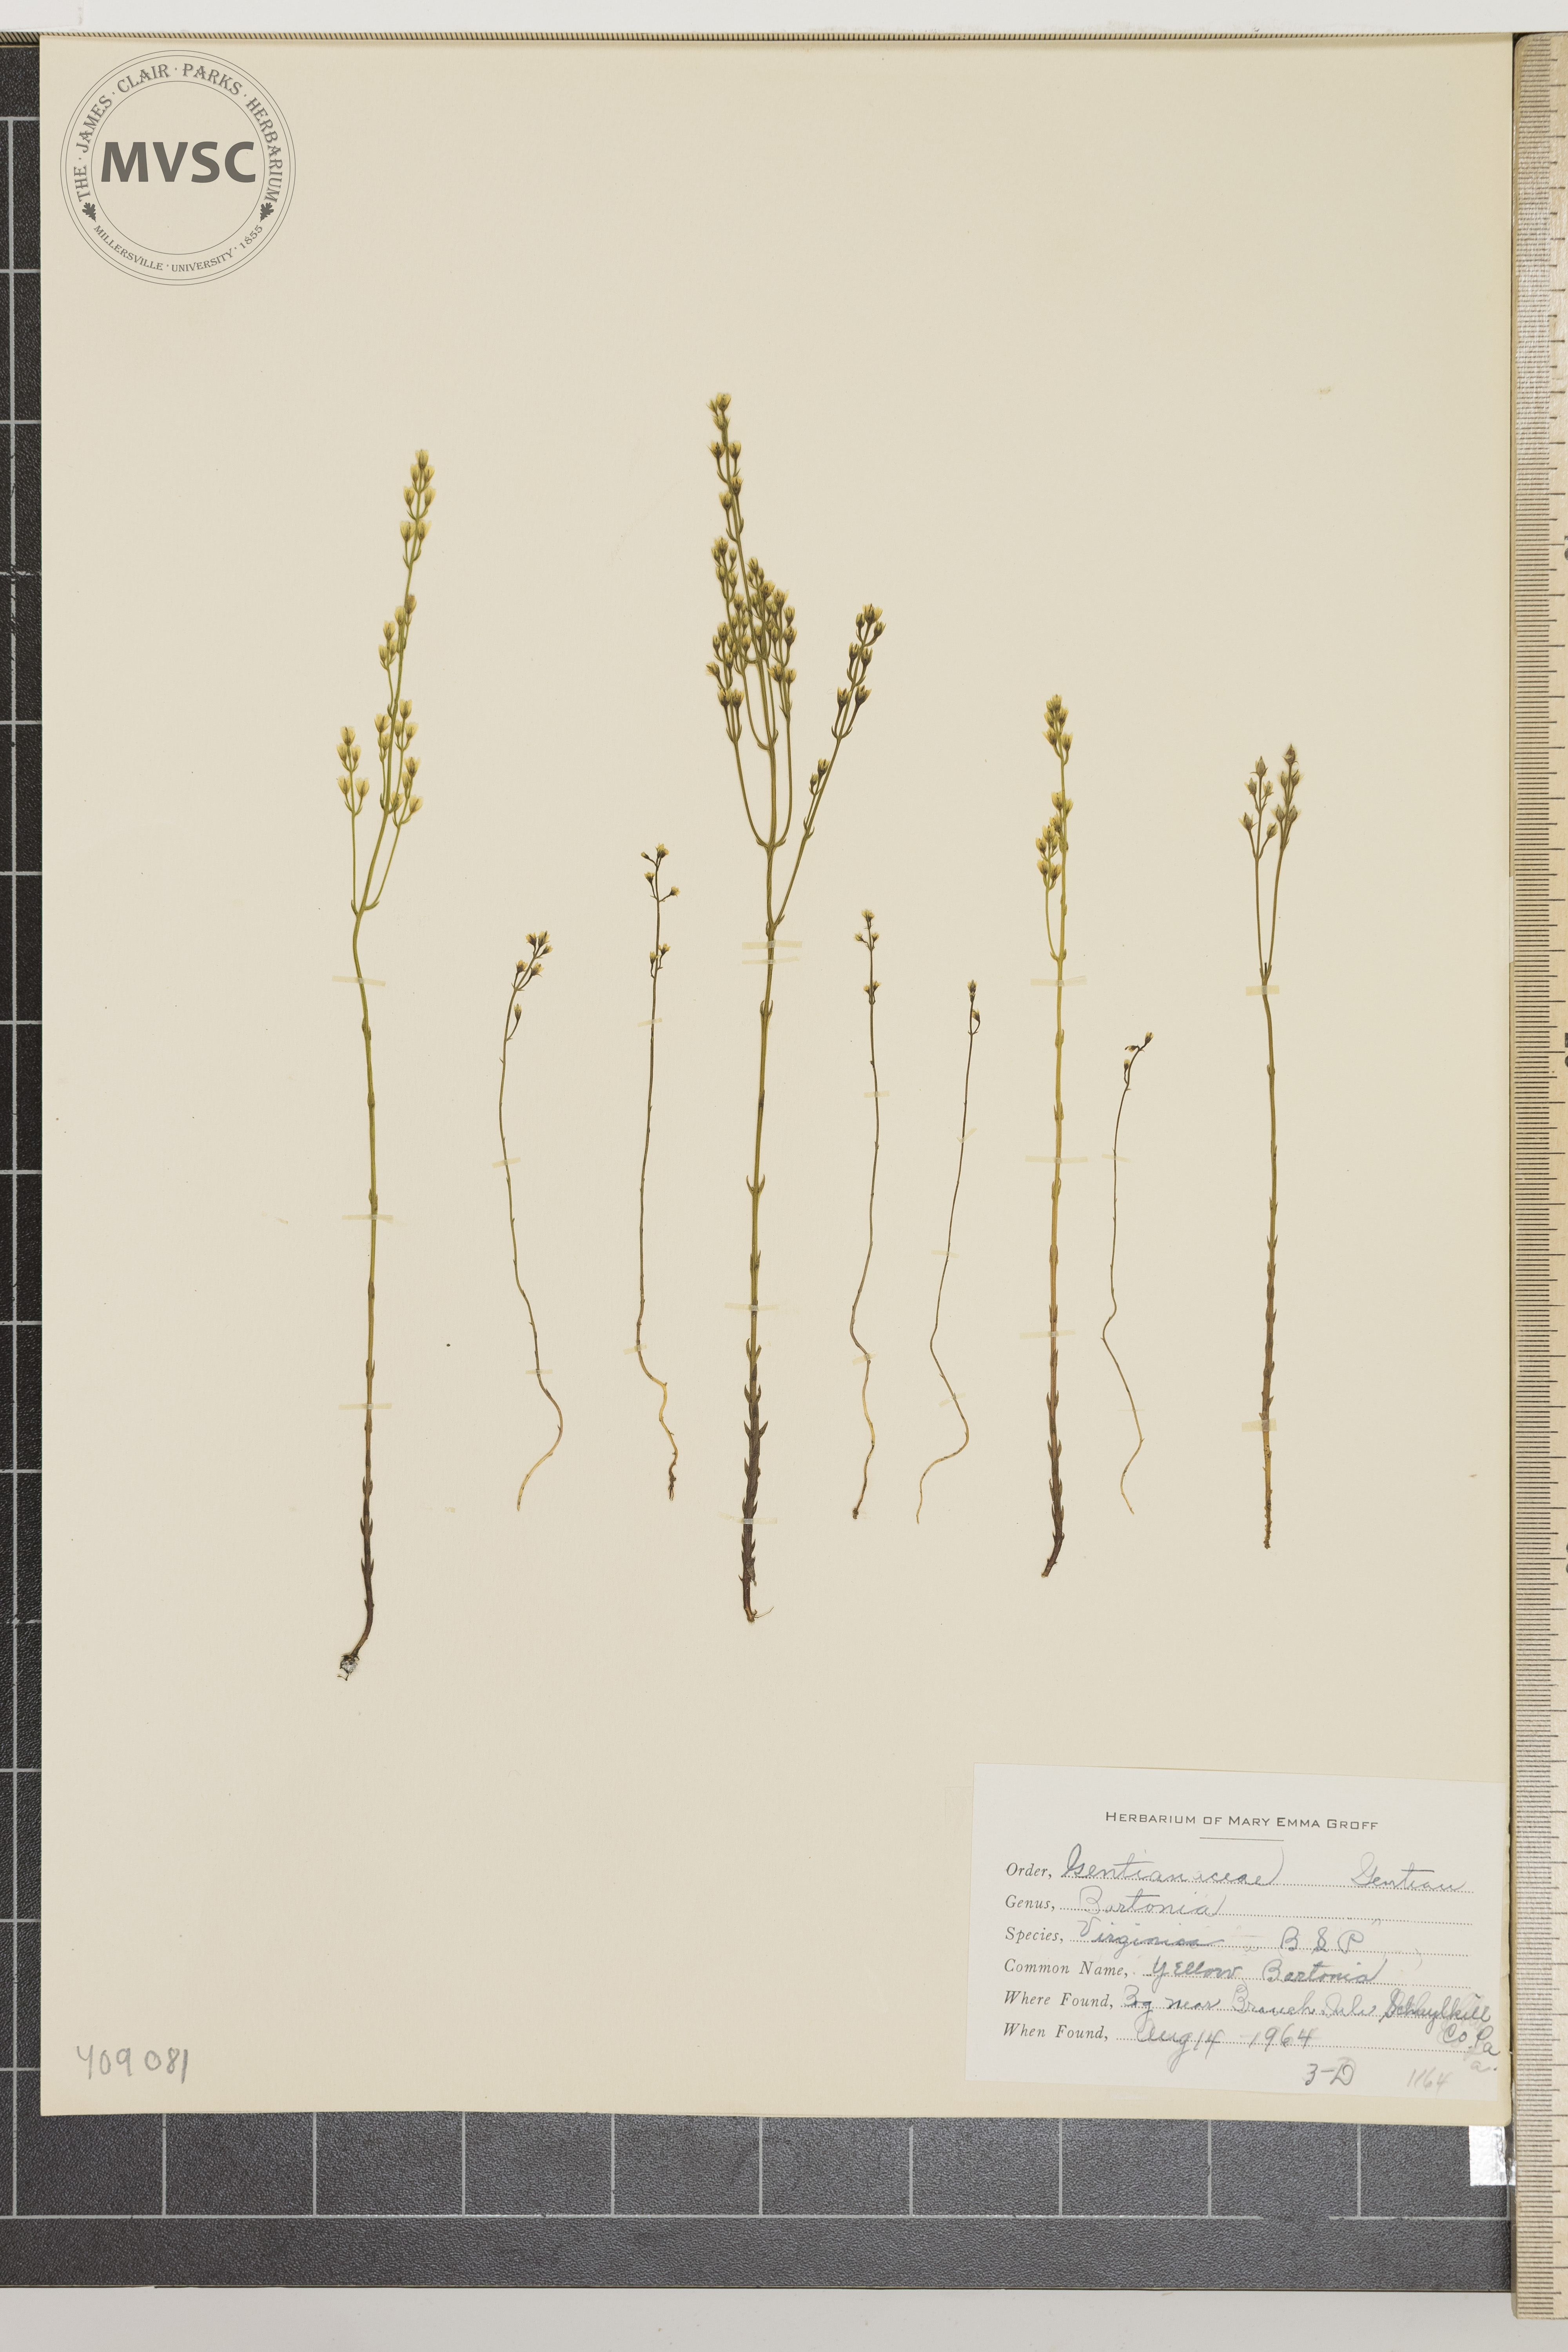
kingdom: Plantae
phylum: Tracheophyta
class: Magnoliopsida
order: Gentianales
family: Gentianaceae
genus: Bartonia
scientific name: Bartonia virginica
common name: Yellow Bartonia
